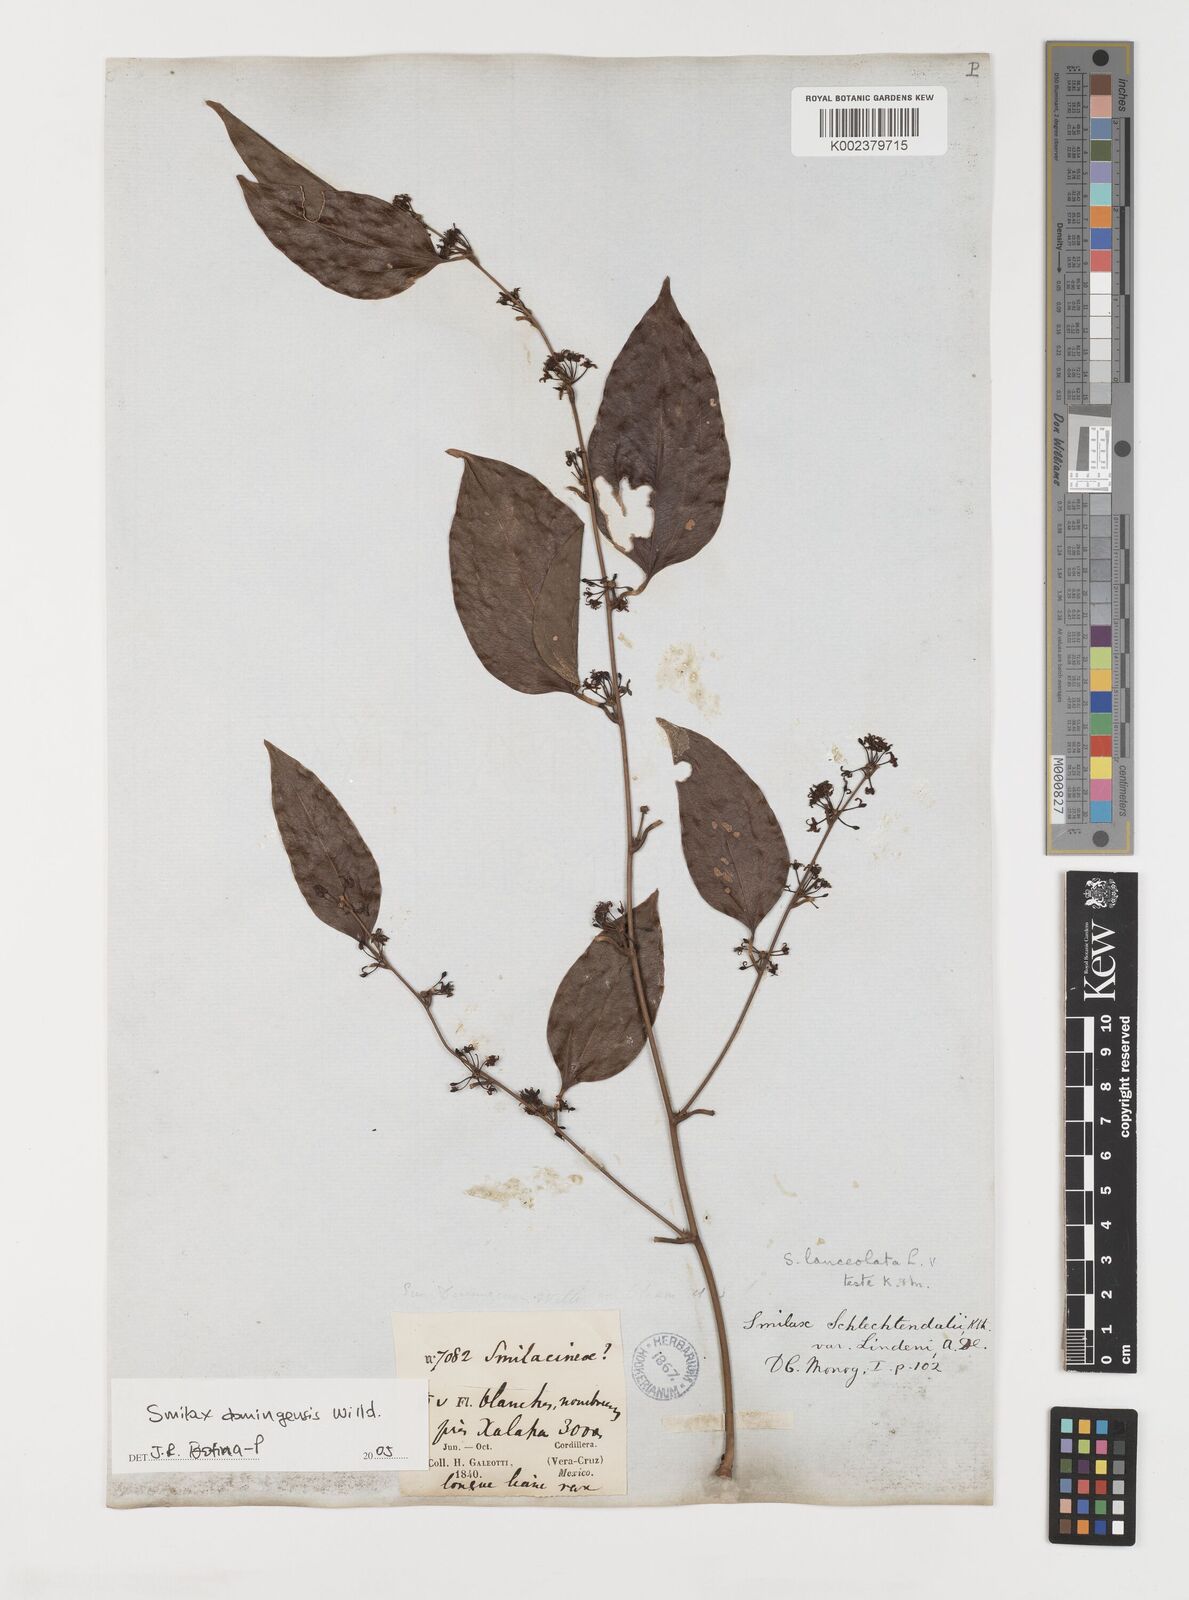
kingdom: Plantae
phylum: Tracheophyta
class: Liliopsida
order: Liliales
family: Smilacaceae
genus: Smilax
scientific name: Smilax domingensis
